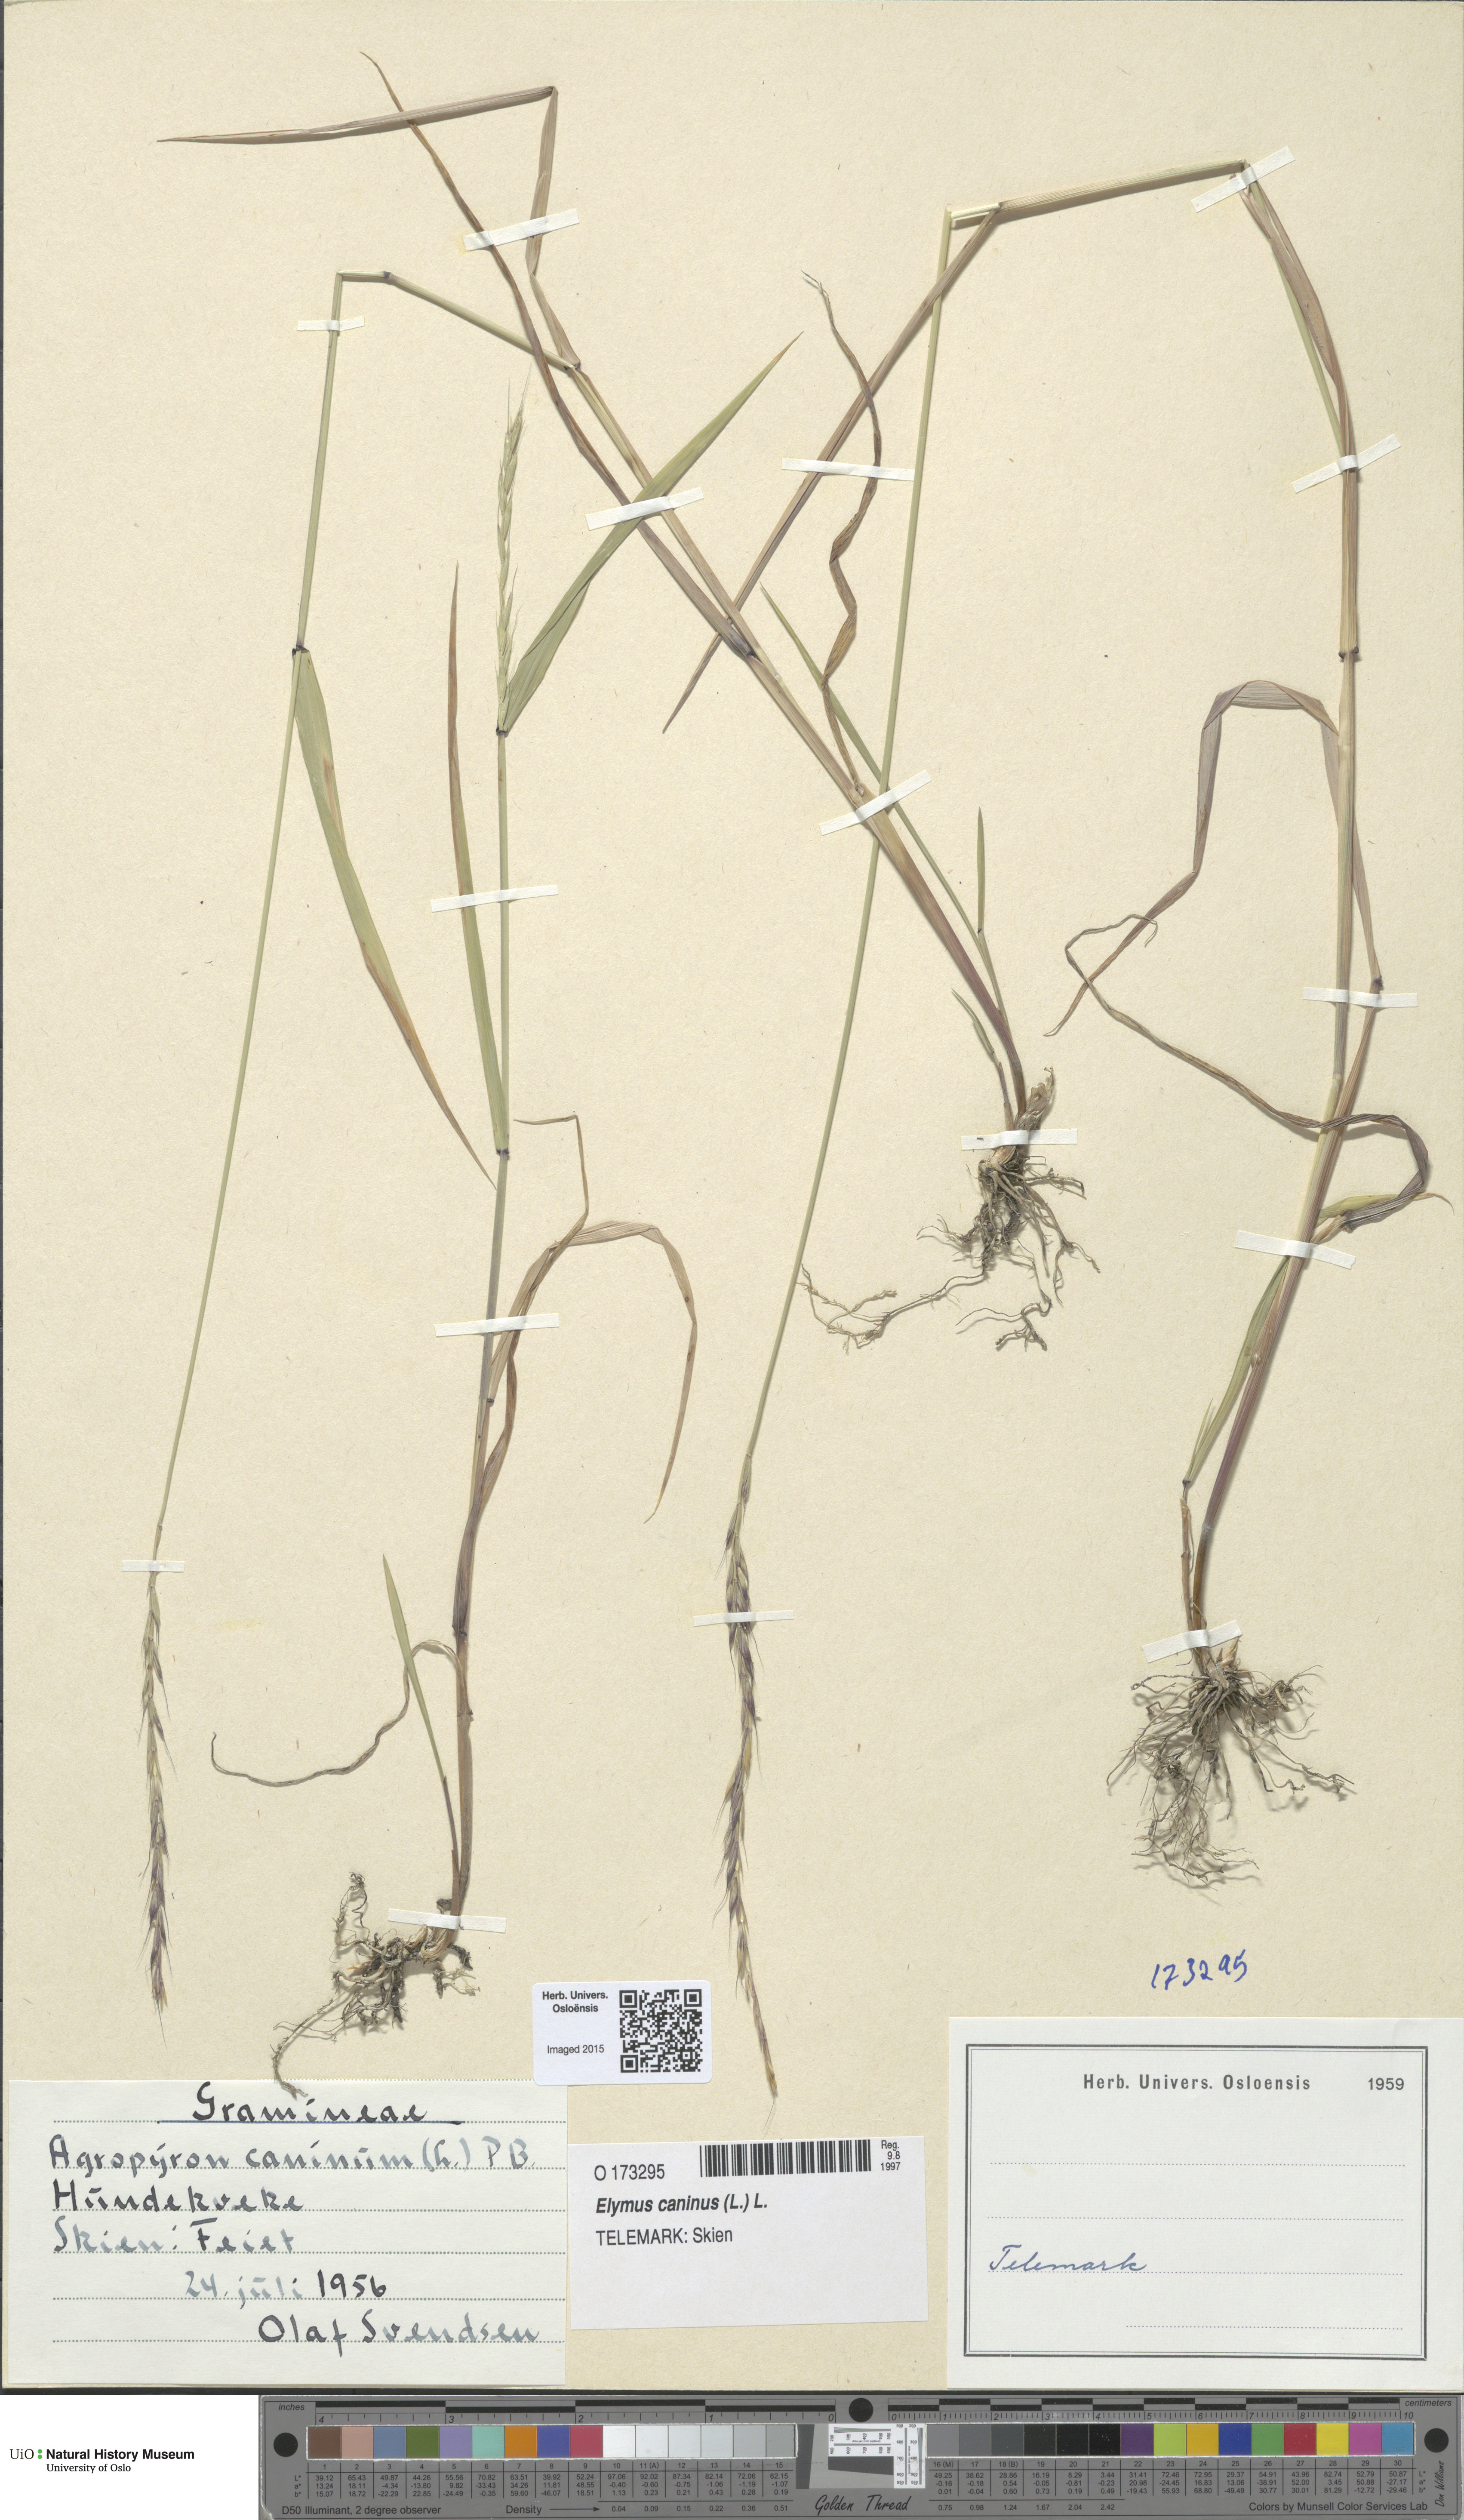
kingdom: Plantae
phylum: Tracheophyta
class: Liliopsida
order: Poales
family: Poaceae
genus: Elymus
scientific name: Elymus caninus
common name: Bearded couch
